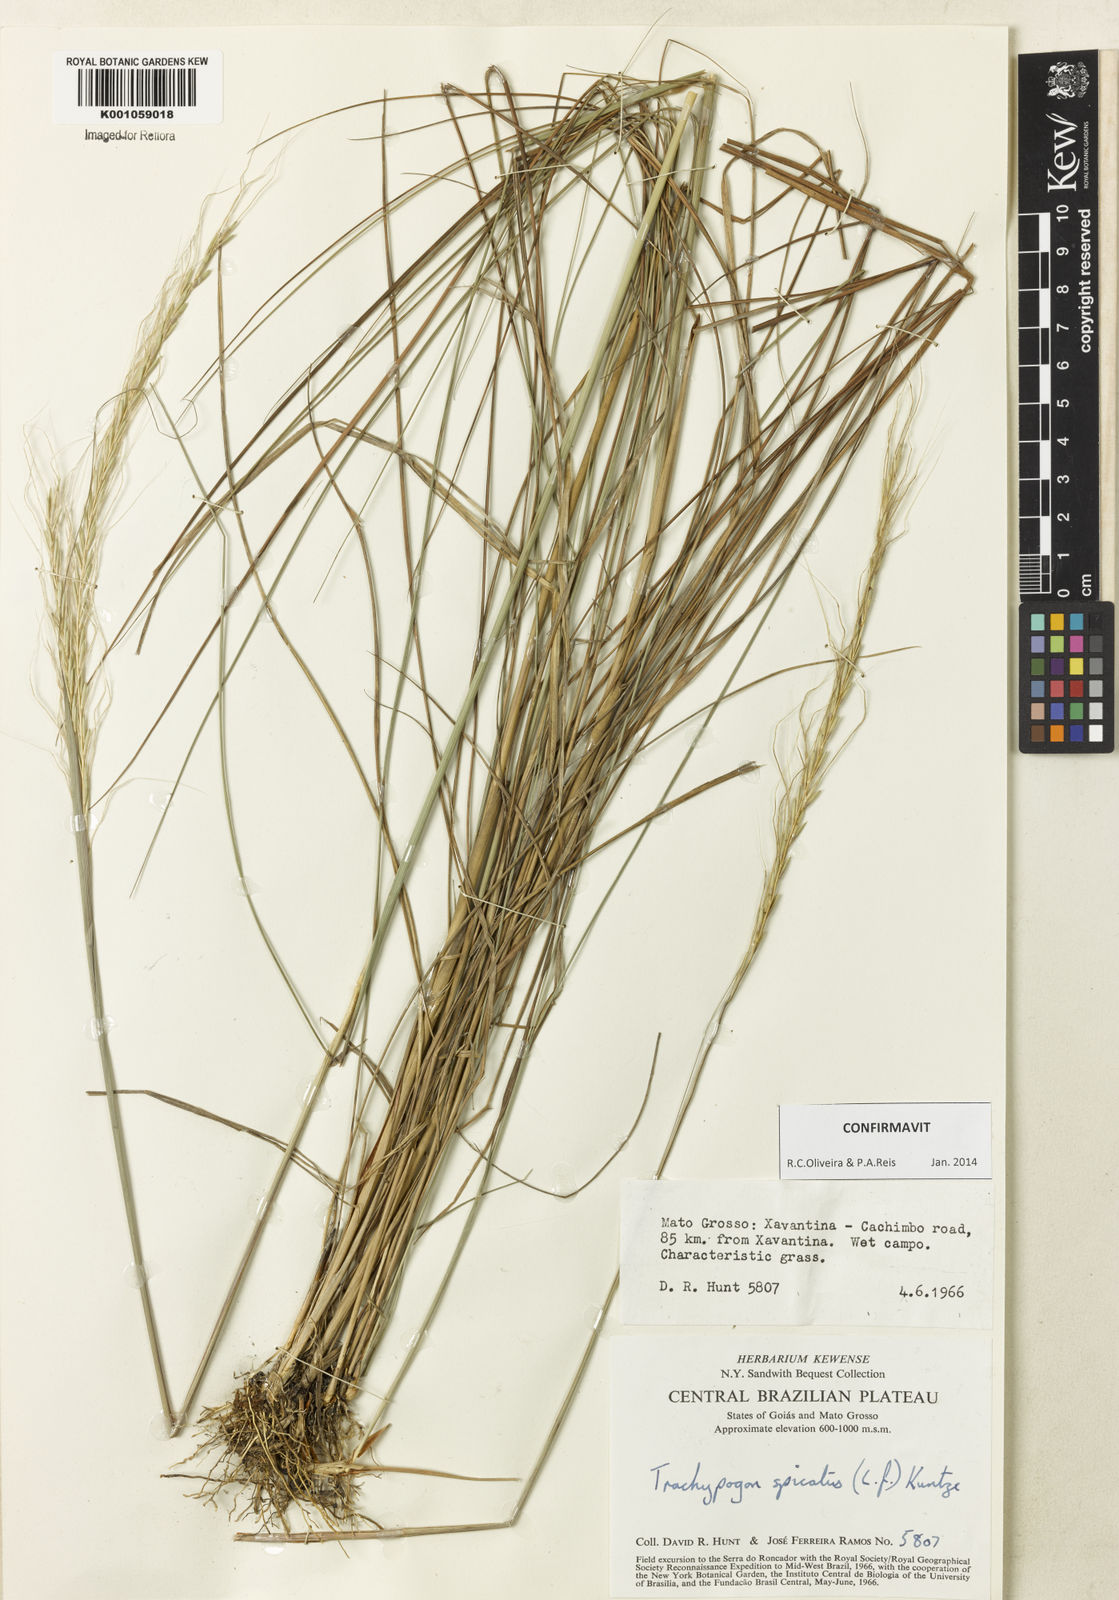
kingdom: Plantae
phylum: Tracheophyta
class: Liliopsida
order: Poales
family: Poaceae
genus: Trachypogon
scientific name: Trachypogon spicatus
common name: Crinkle-awn
